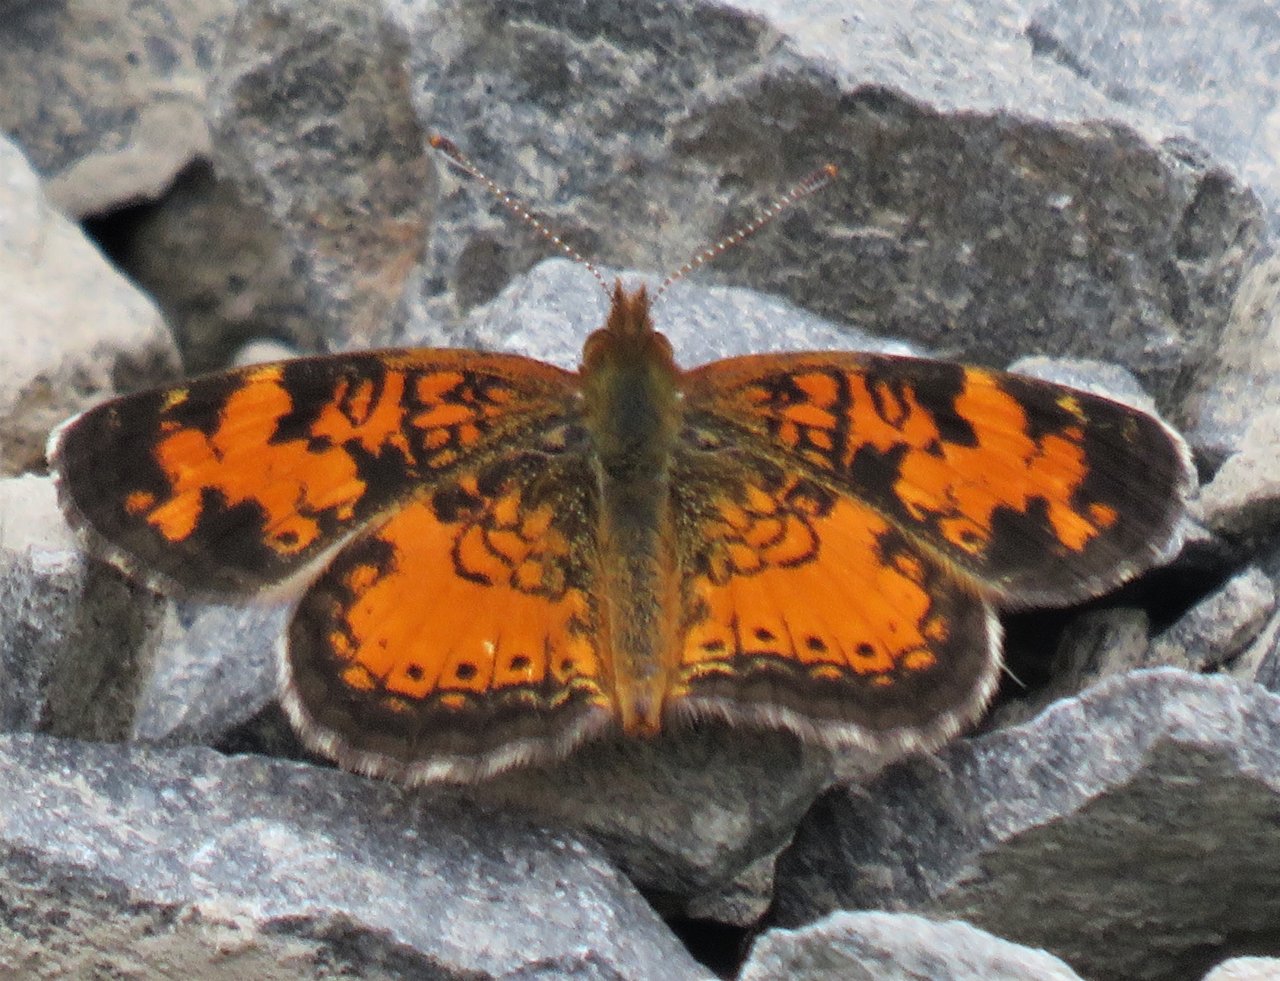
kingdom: Animalia
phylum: Arthropoda
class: Insecta
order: Lepidoptera
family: Nymphalidae
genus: Phyciodes
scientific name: Phyciodes tharos
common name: Northern Crescent
